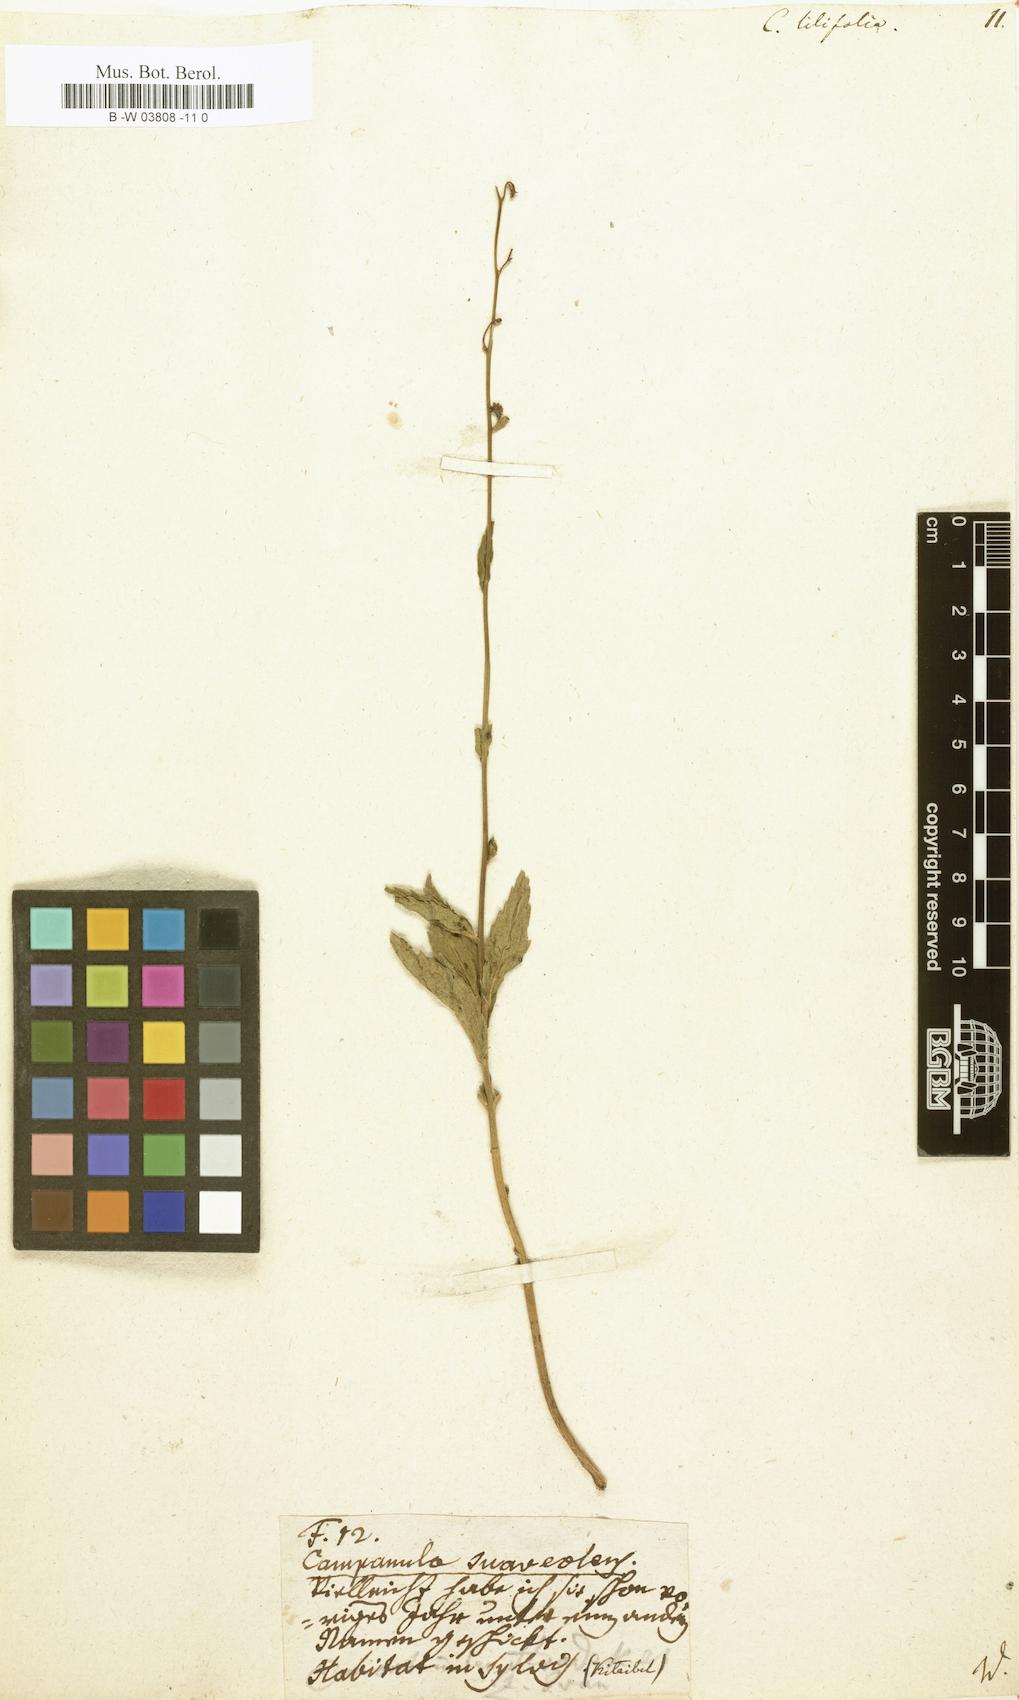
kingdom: Plantae
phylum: Tracheophyta
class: Magnoliopsida
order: Asterales
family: Campanulaceae
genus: Campanula
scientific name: Campanula lilifolia
